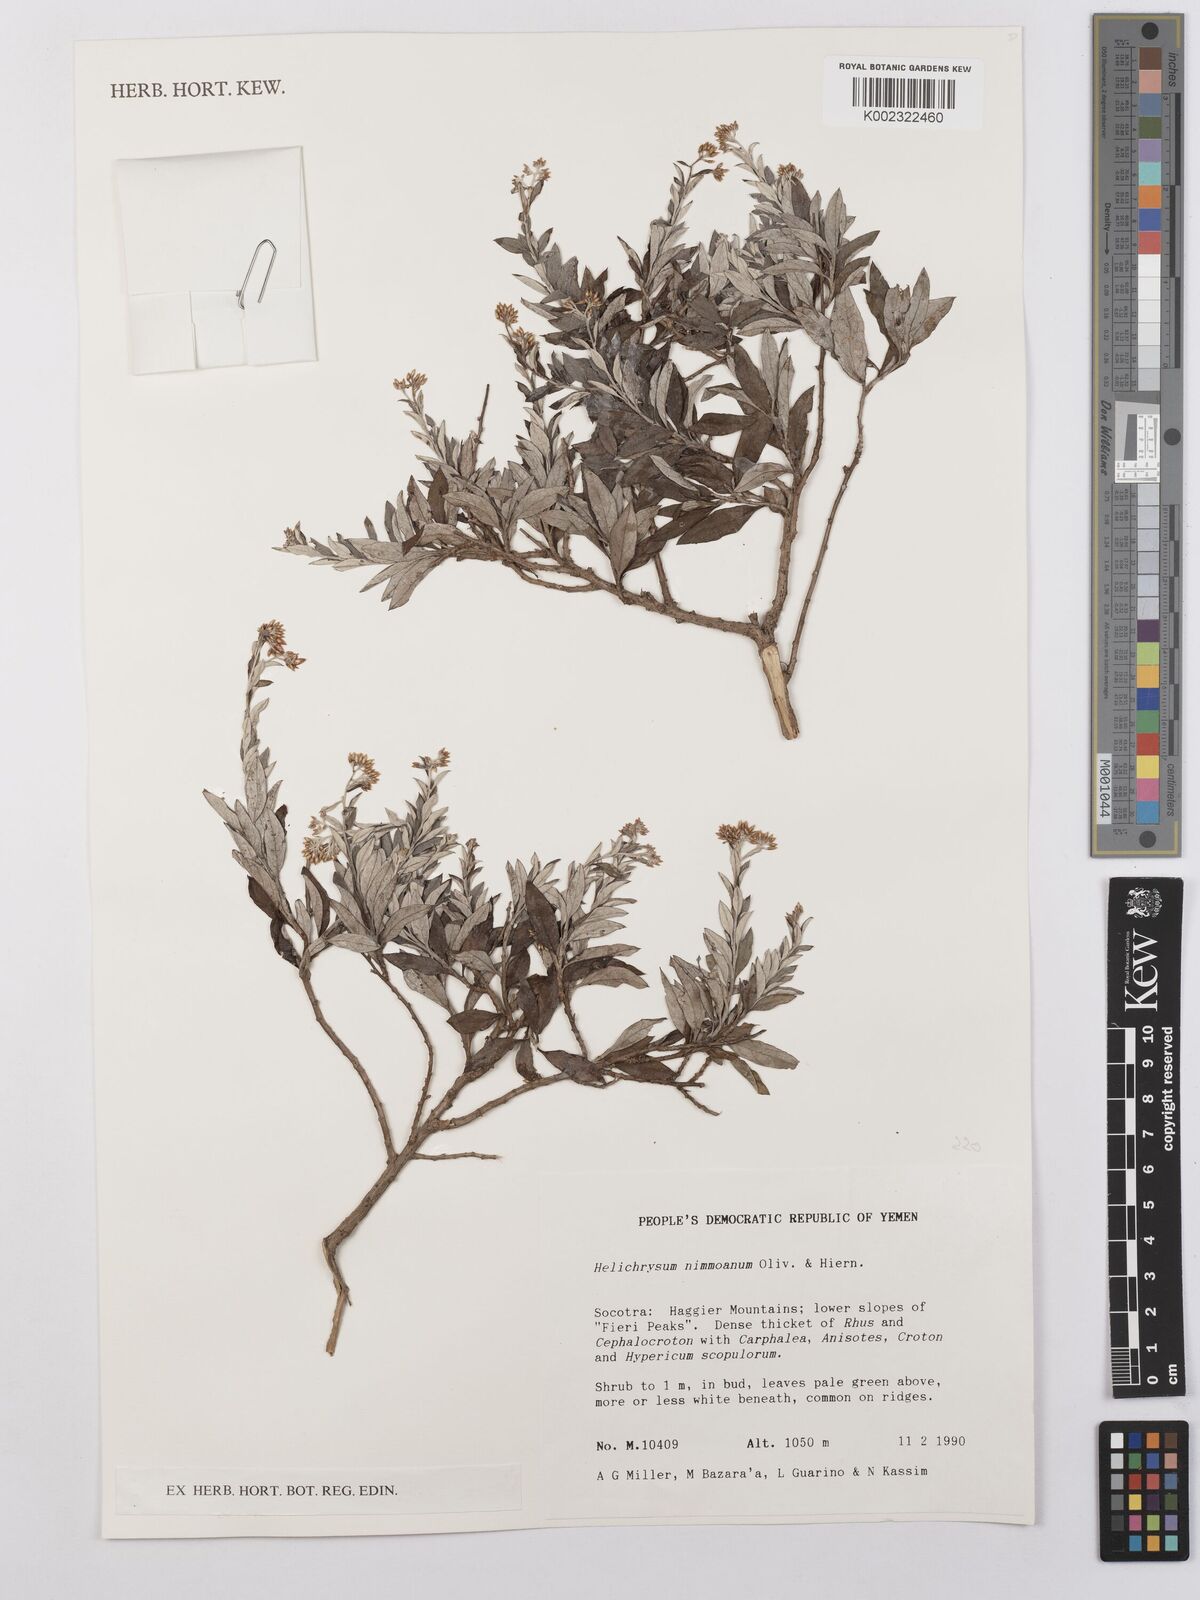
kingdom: Plantae
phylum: Tracheophyta
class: Magnoliopsida
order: Asterales
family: Asteraceae
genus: Libinhania
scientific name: Libinhania nimmoana
